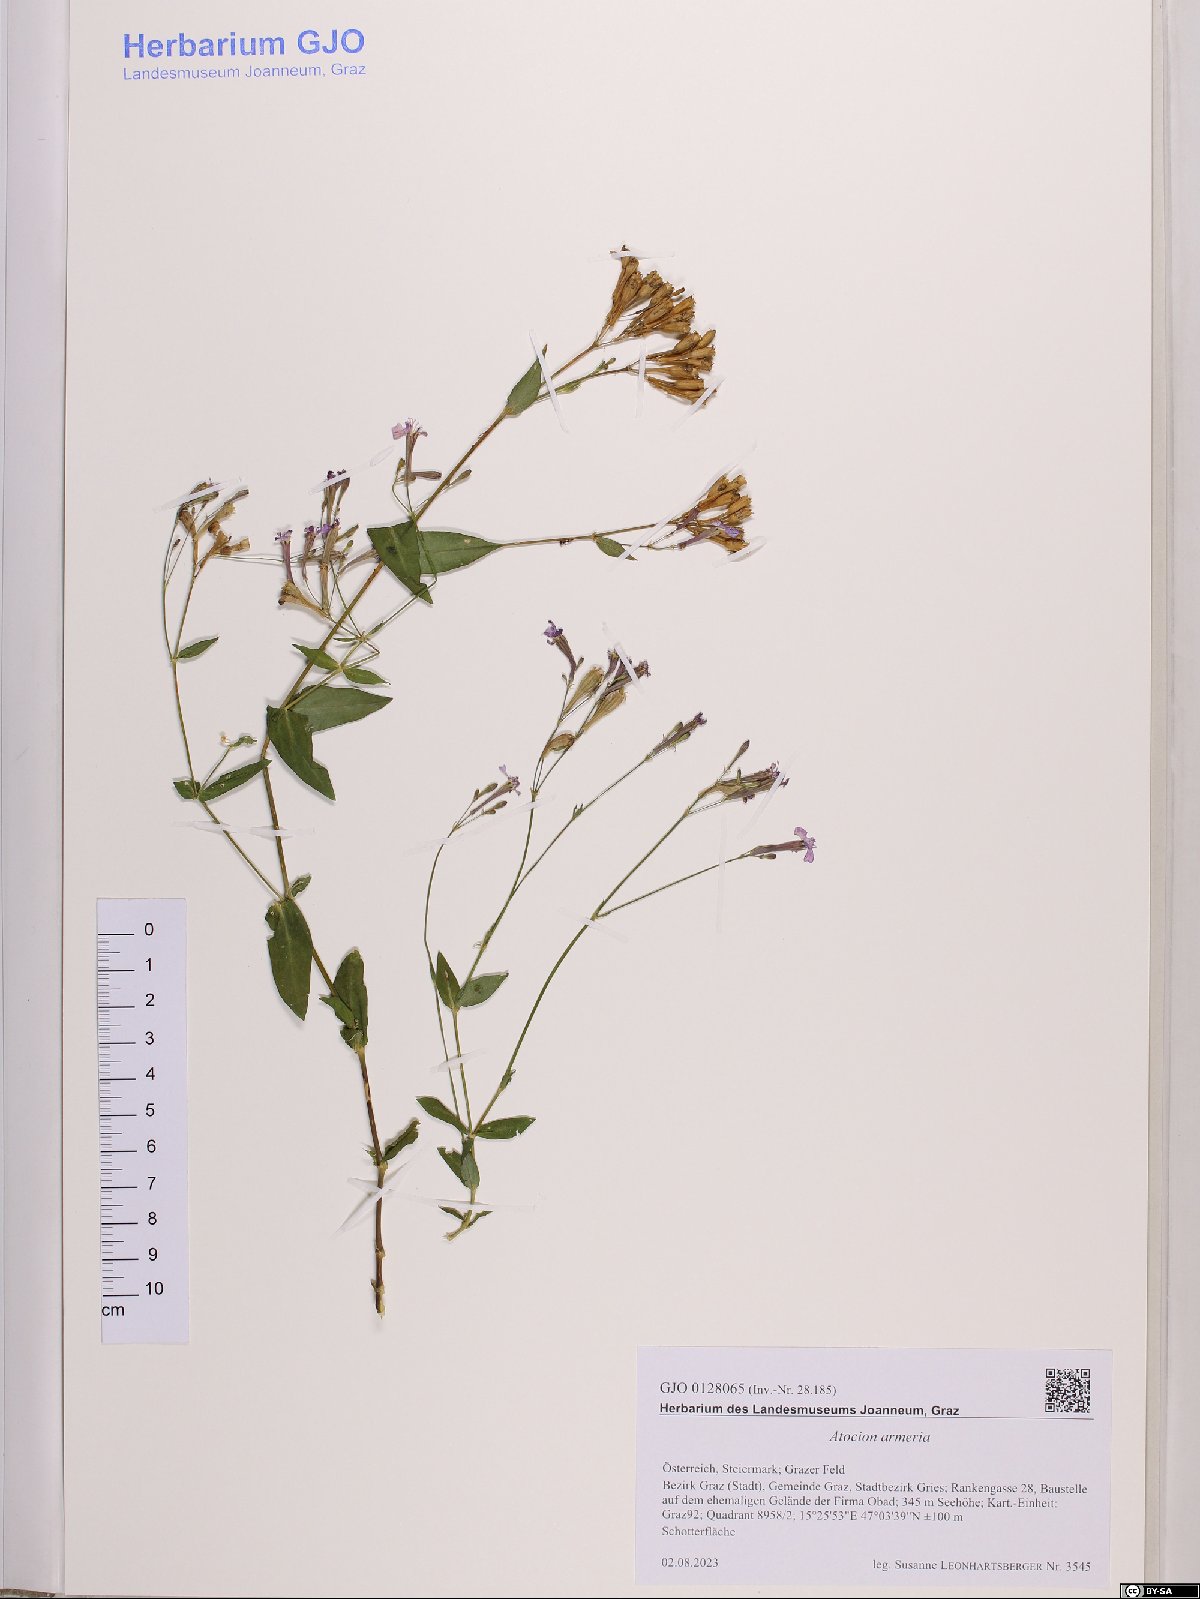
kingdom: Plantae
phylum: Tracheophyta
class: Magnoliopsida
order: Caryophyllales
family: Caryophyllaceae
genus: Atocion
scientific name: Atocion armeria
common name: Sweet william catchfly
